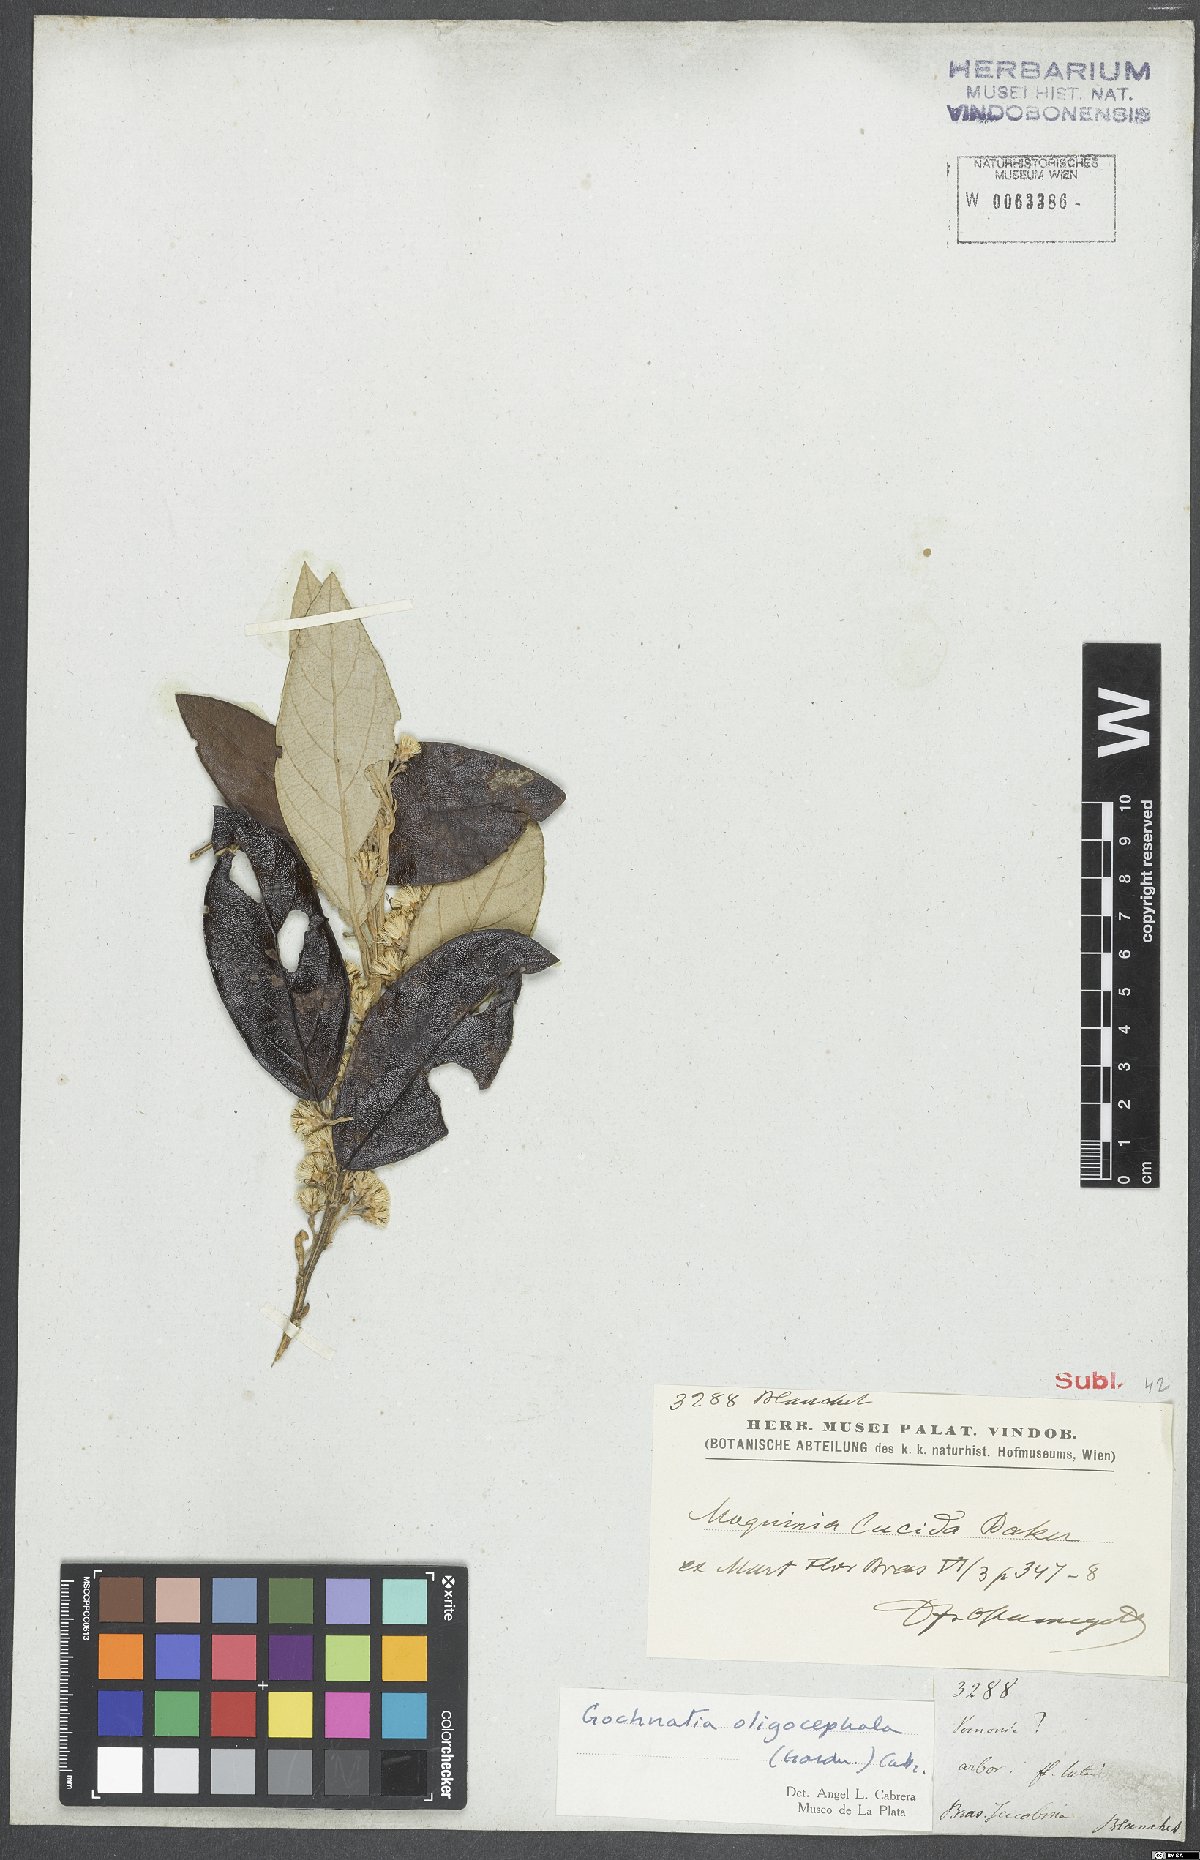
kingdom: Plantae
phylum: Tracheophyta
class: Magnoliopsida
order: Asterales
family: Asteraceae
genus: Moquiniastrum
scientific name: Moquiniastrum oligocephalum
